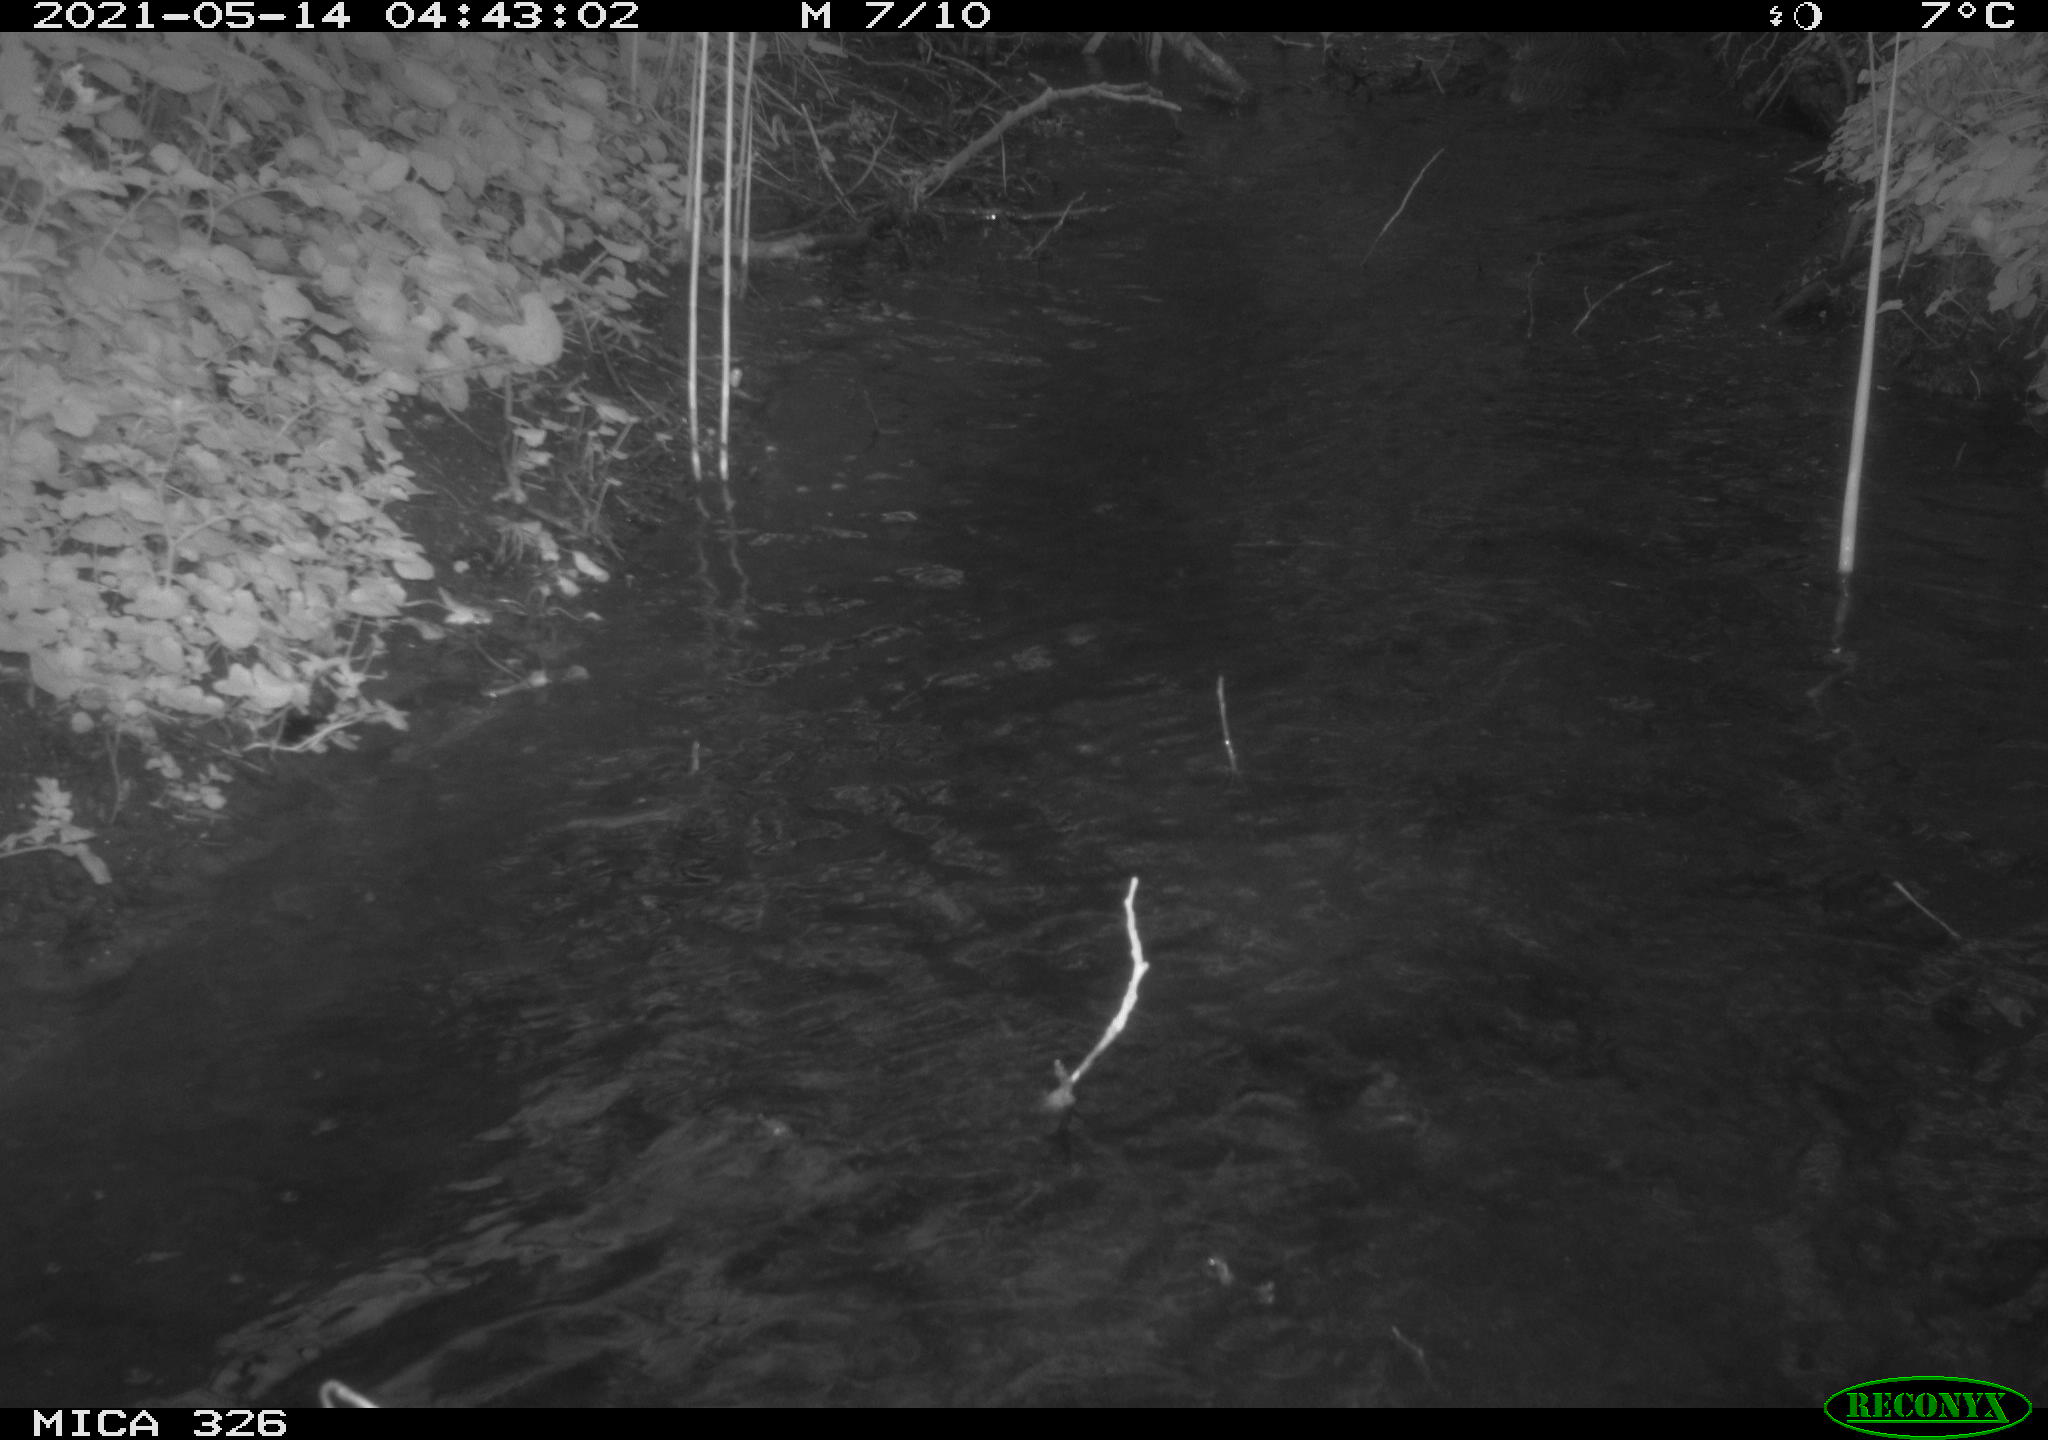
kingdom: Animalia
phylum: Chordata
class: Mammalia
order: Carnivora
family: Mustelidae
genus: Lutra
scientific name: Lutra lutra
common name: European otter
